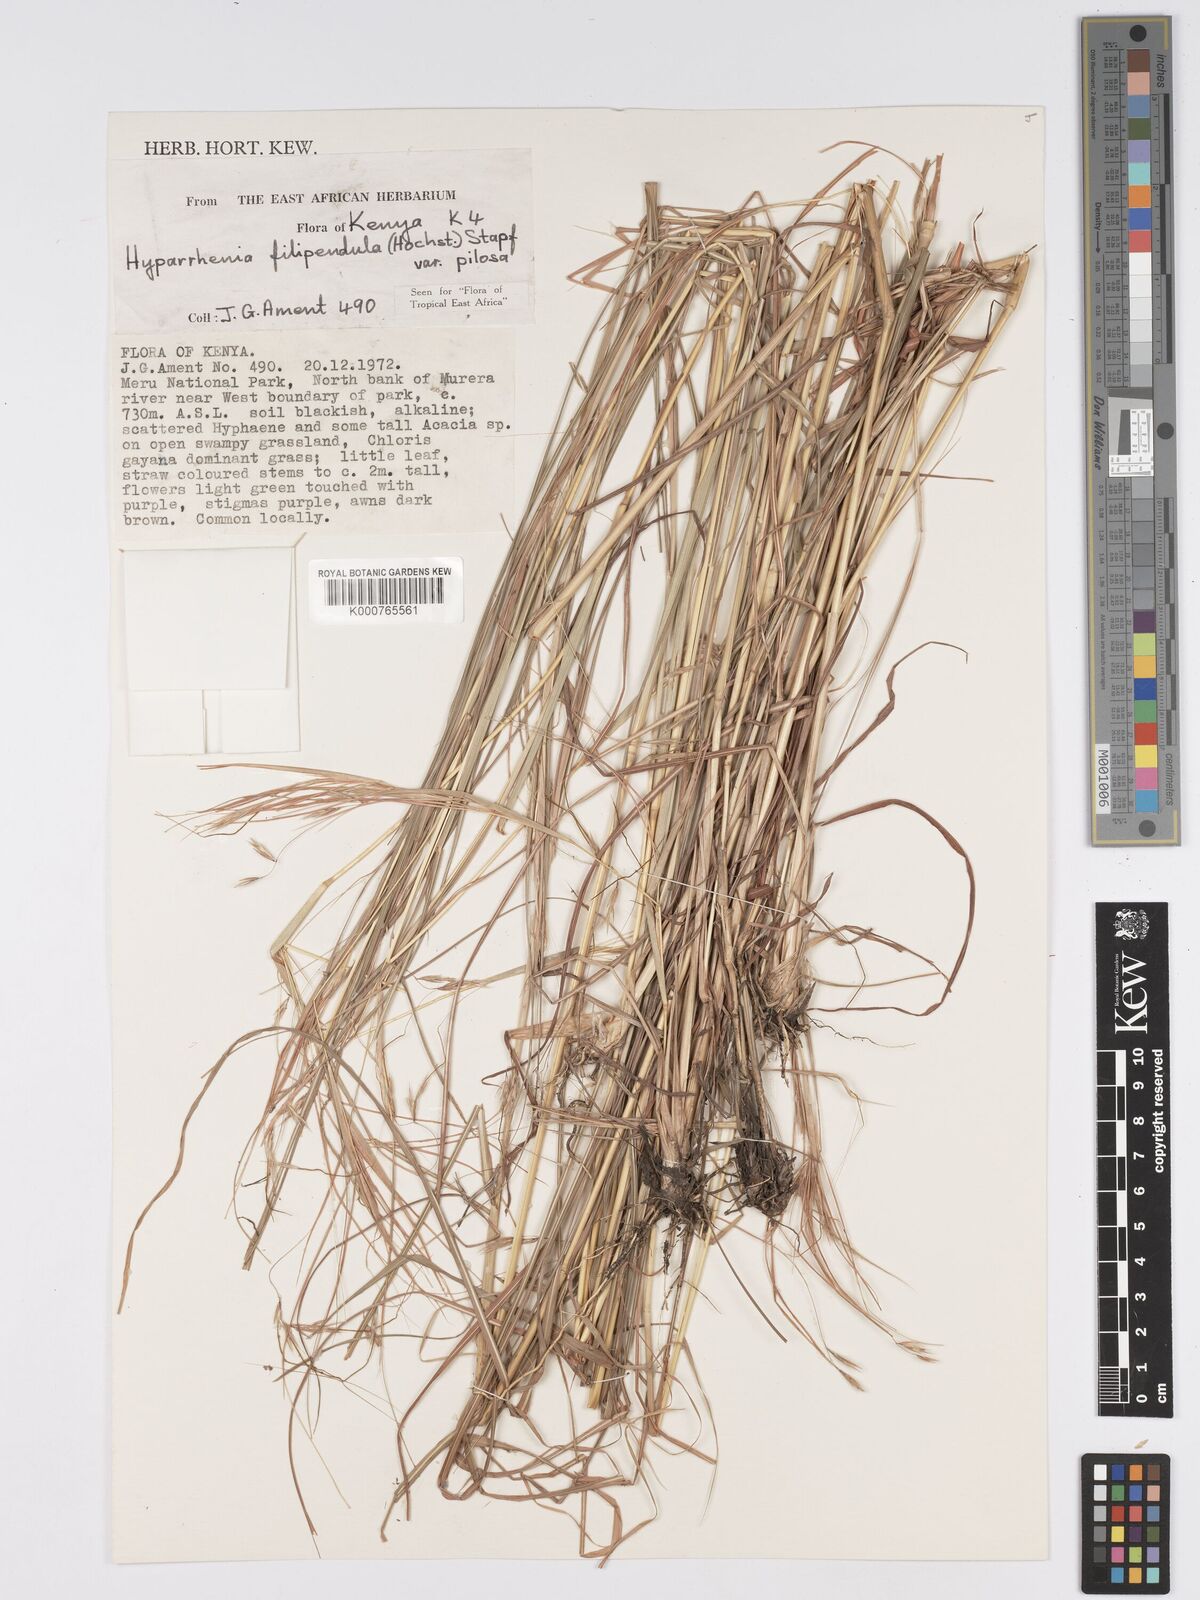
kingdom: Plantae
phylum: Tracheophyta
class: Liliopsida
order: Poales
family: Poaceae
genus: Hyparrhenia
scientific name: Hyparrhenia filipendula
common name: Tambookie grass
